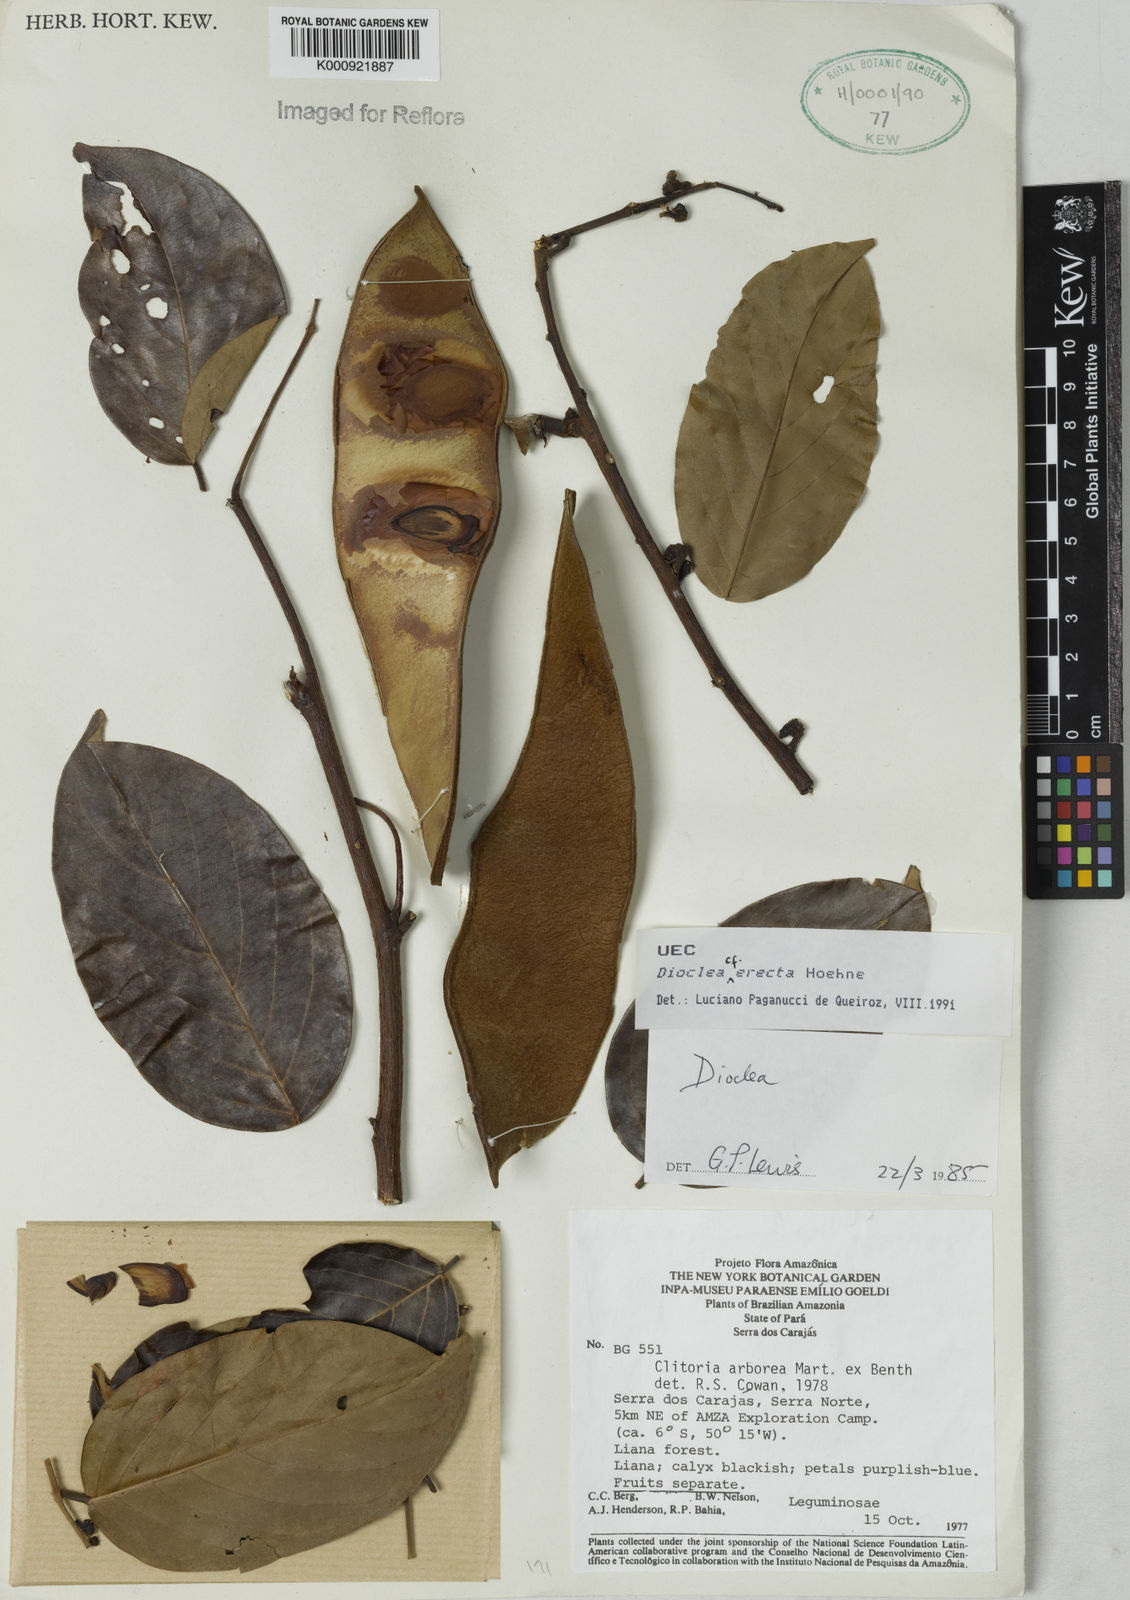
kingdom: Plantae
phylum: Tracheophyta
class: Magnoliopsida
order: Fabales
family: Fabaceae
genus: Macropsychanthus
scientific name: Macropsychanthus erectus
